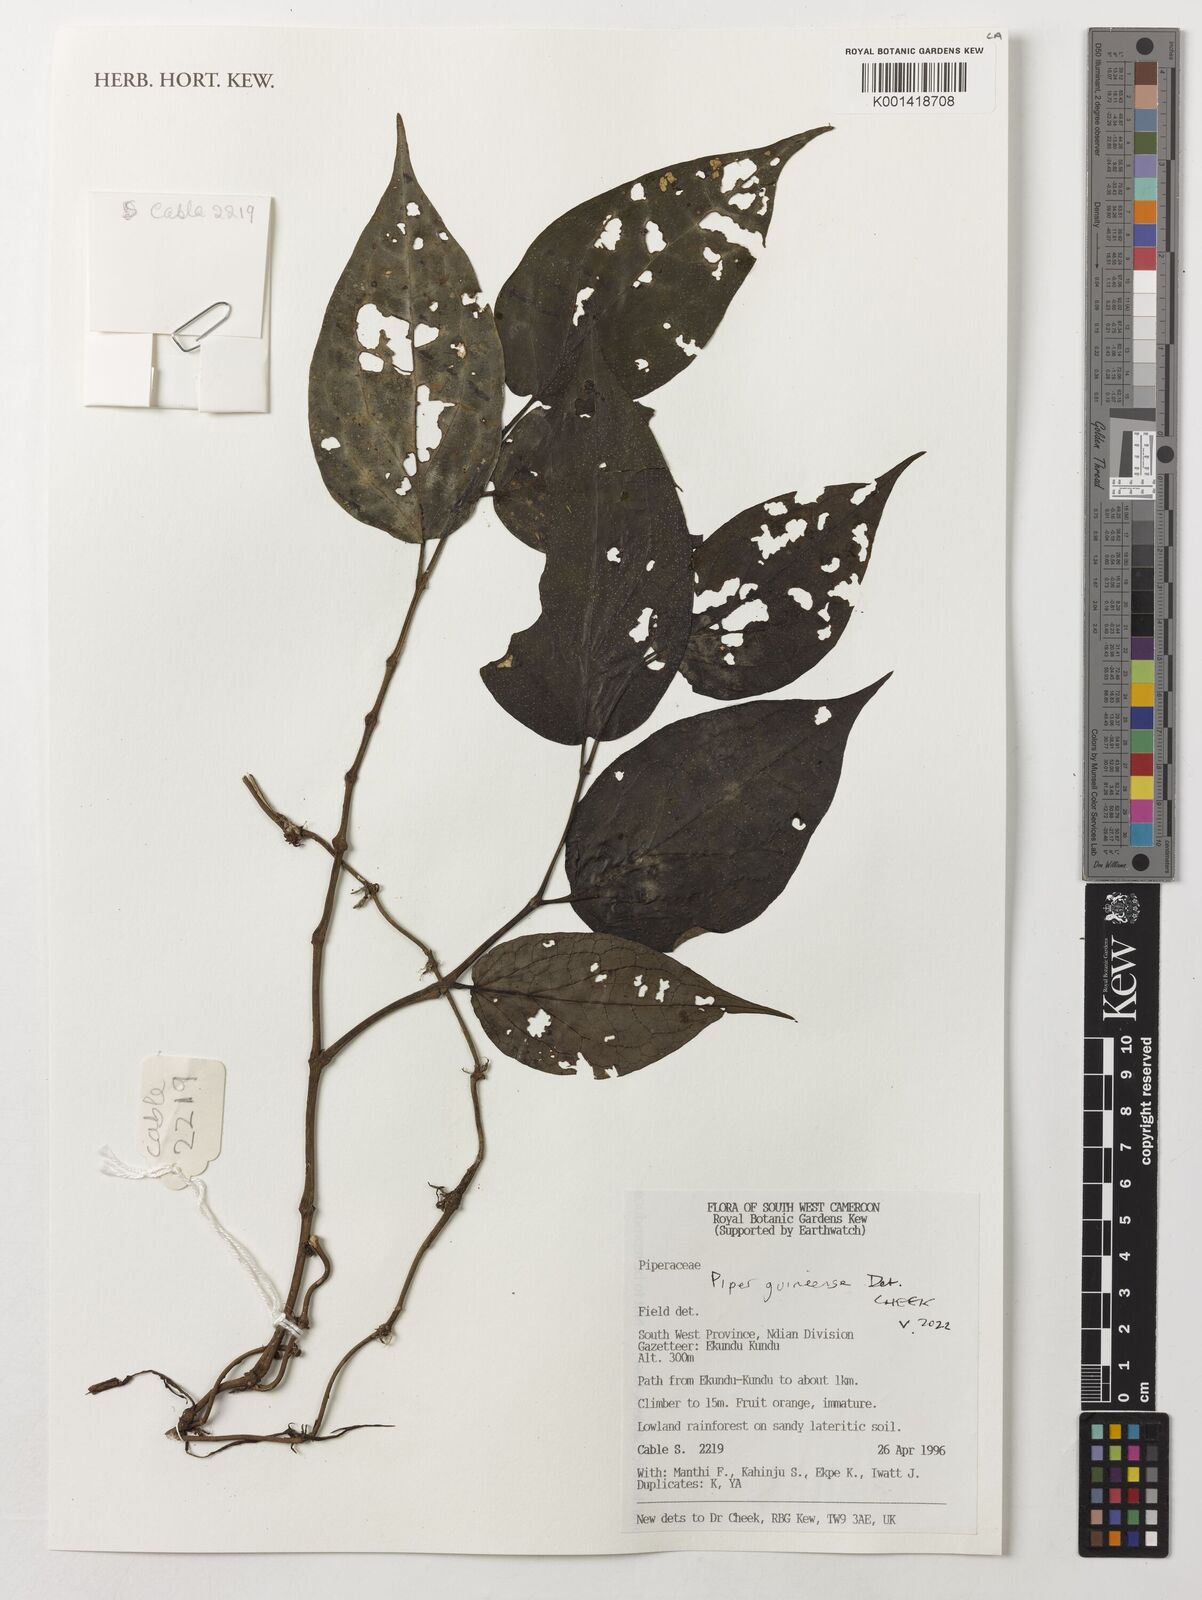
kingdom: Plantae
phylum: Tracheophyta
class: Magnoliopsida
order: Piperales
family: Piperaceae
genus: Piper
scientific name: Piper guineense
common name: Benin pepper
